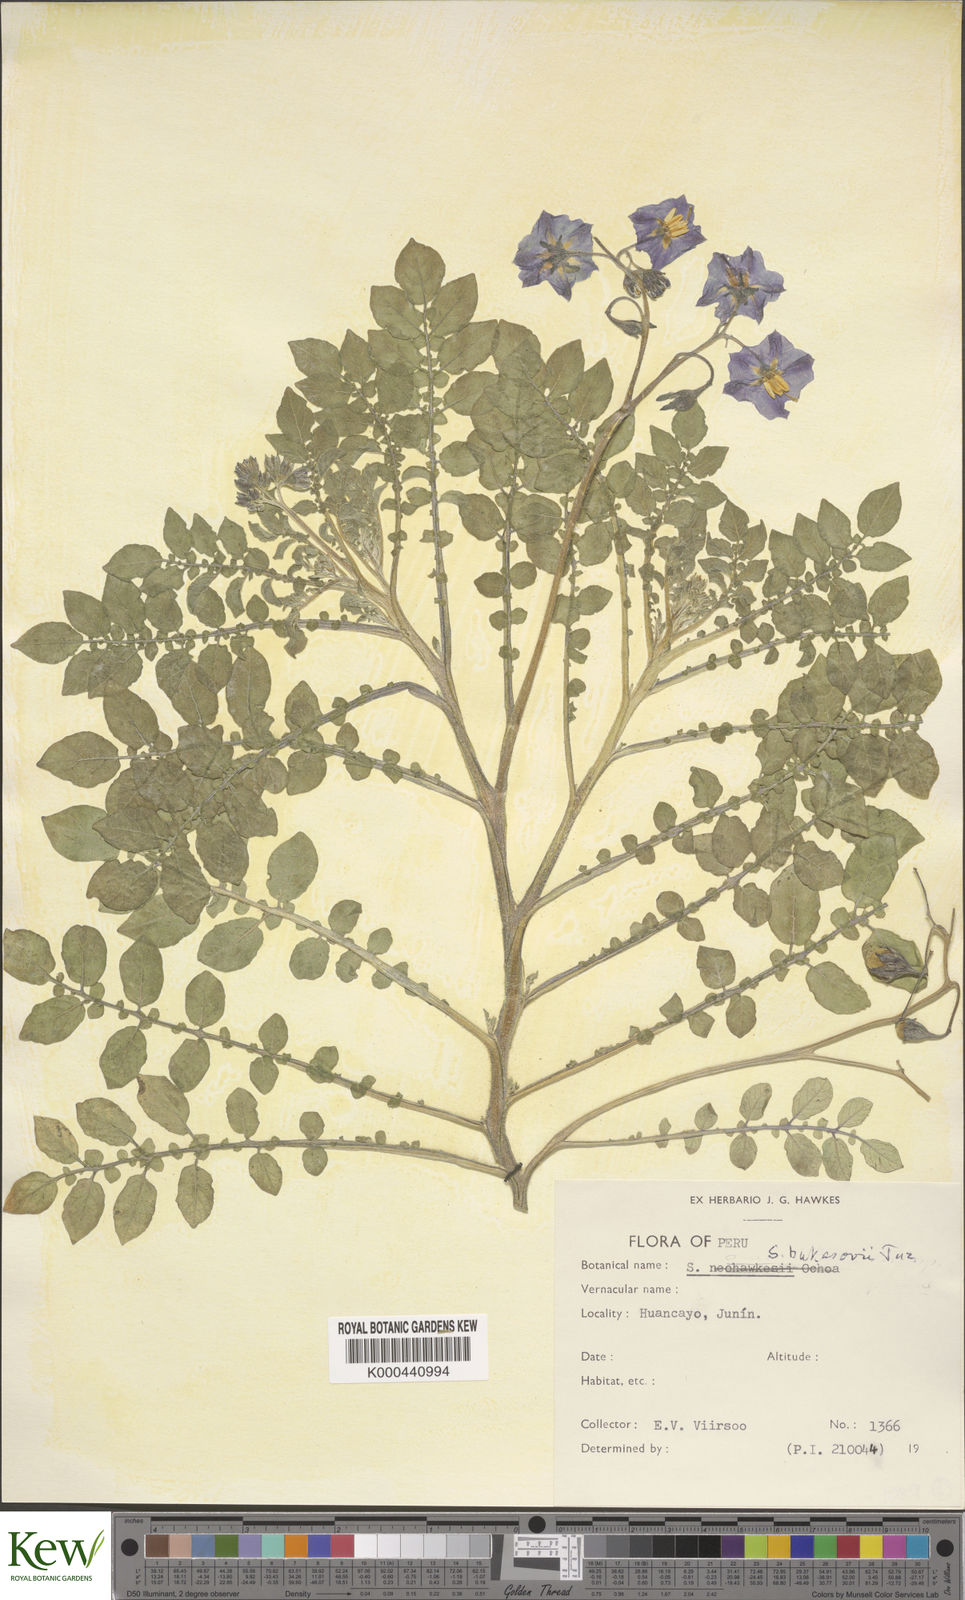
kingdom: Plantae
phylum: Tracheophyta
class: Magnoliopsida
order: Solanales
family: Solanaceae
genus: Solanum
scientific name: Solanum candolleanum
